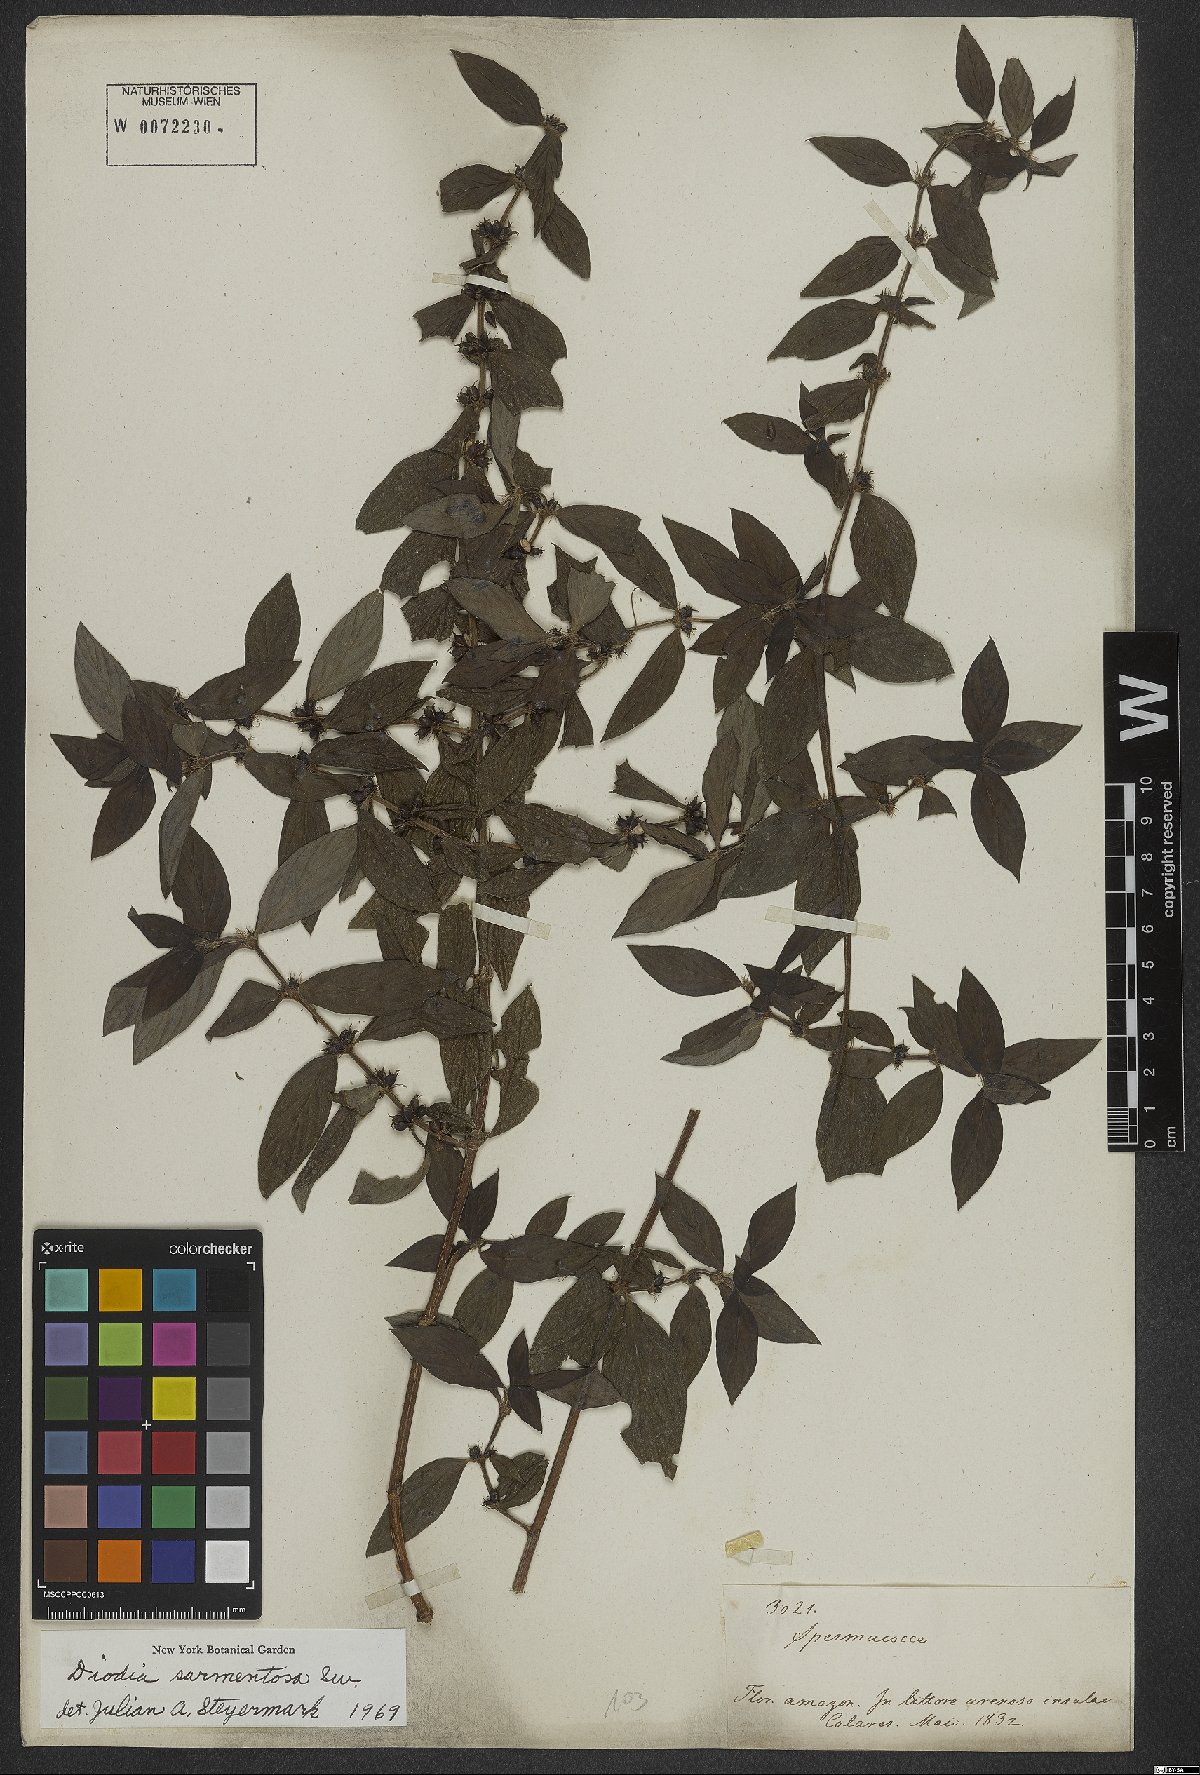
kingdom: Plantae
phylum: Tracheophyta
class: Magnoliopsida
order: Gentianales
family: Rubiaceae
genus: Hexasepalum
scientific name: Hexasepalum sarmentosum
